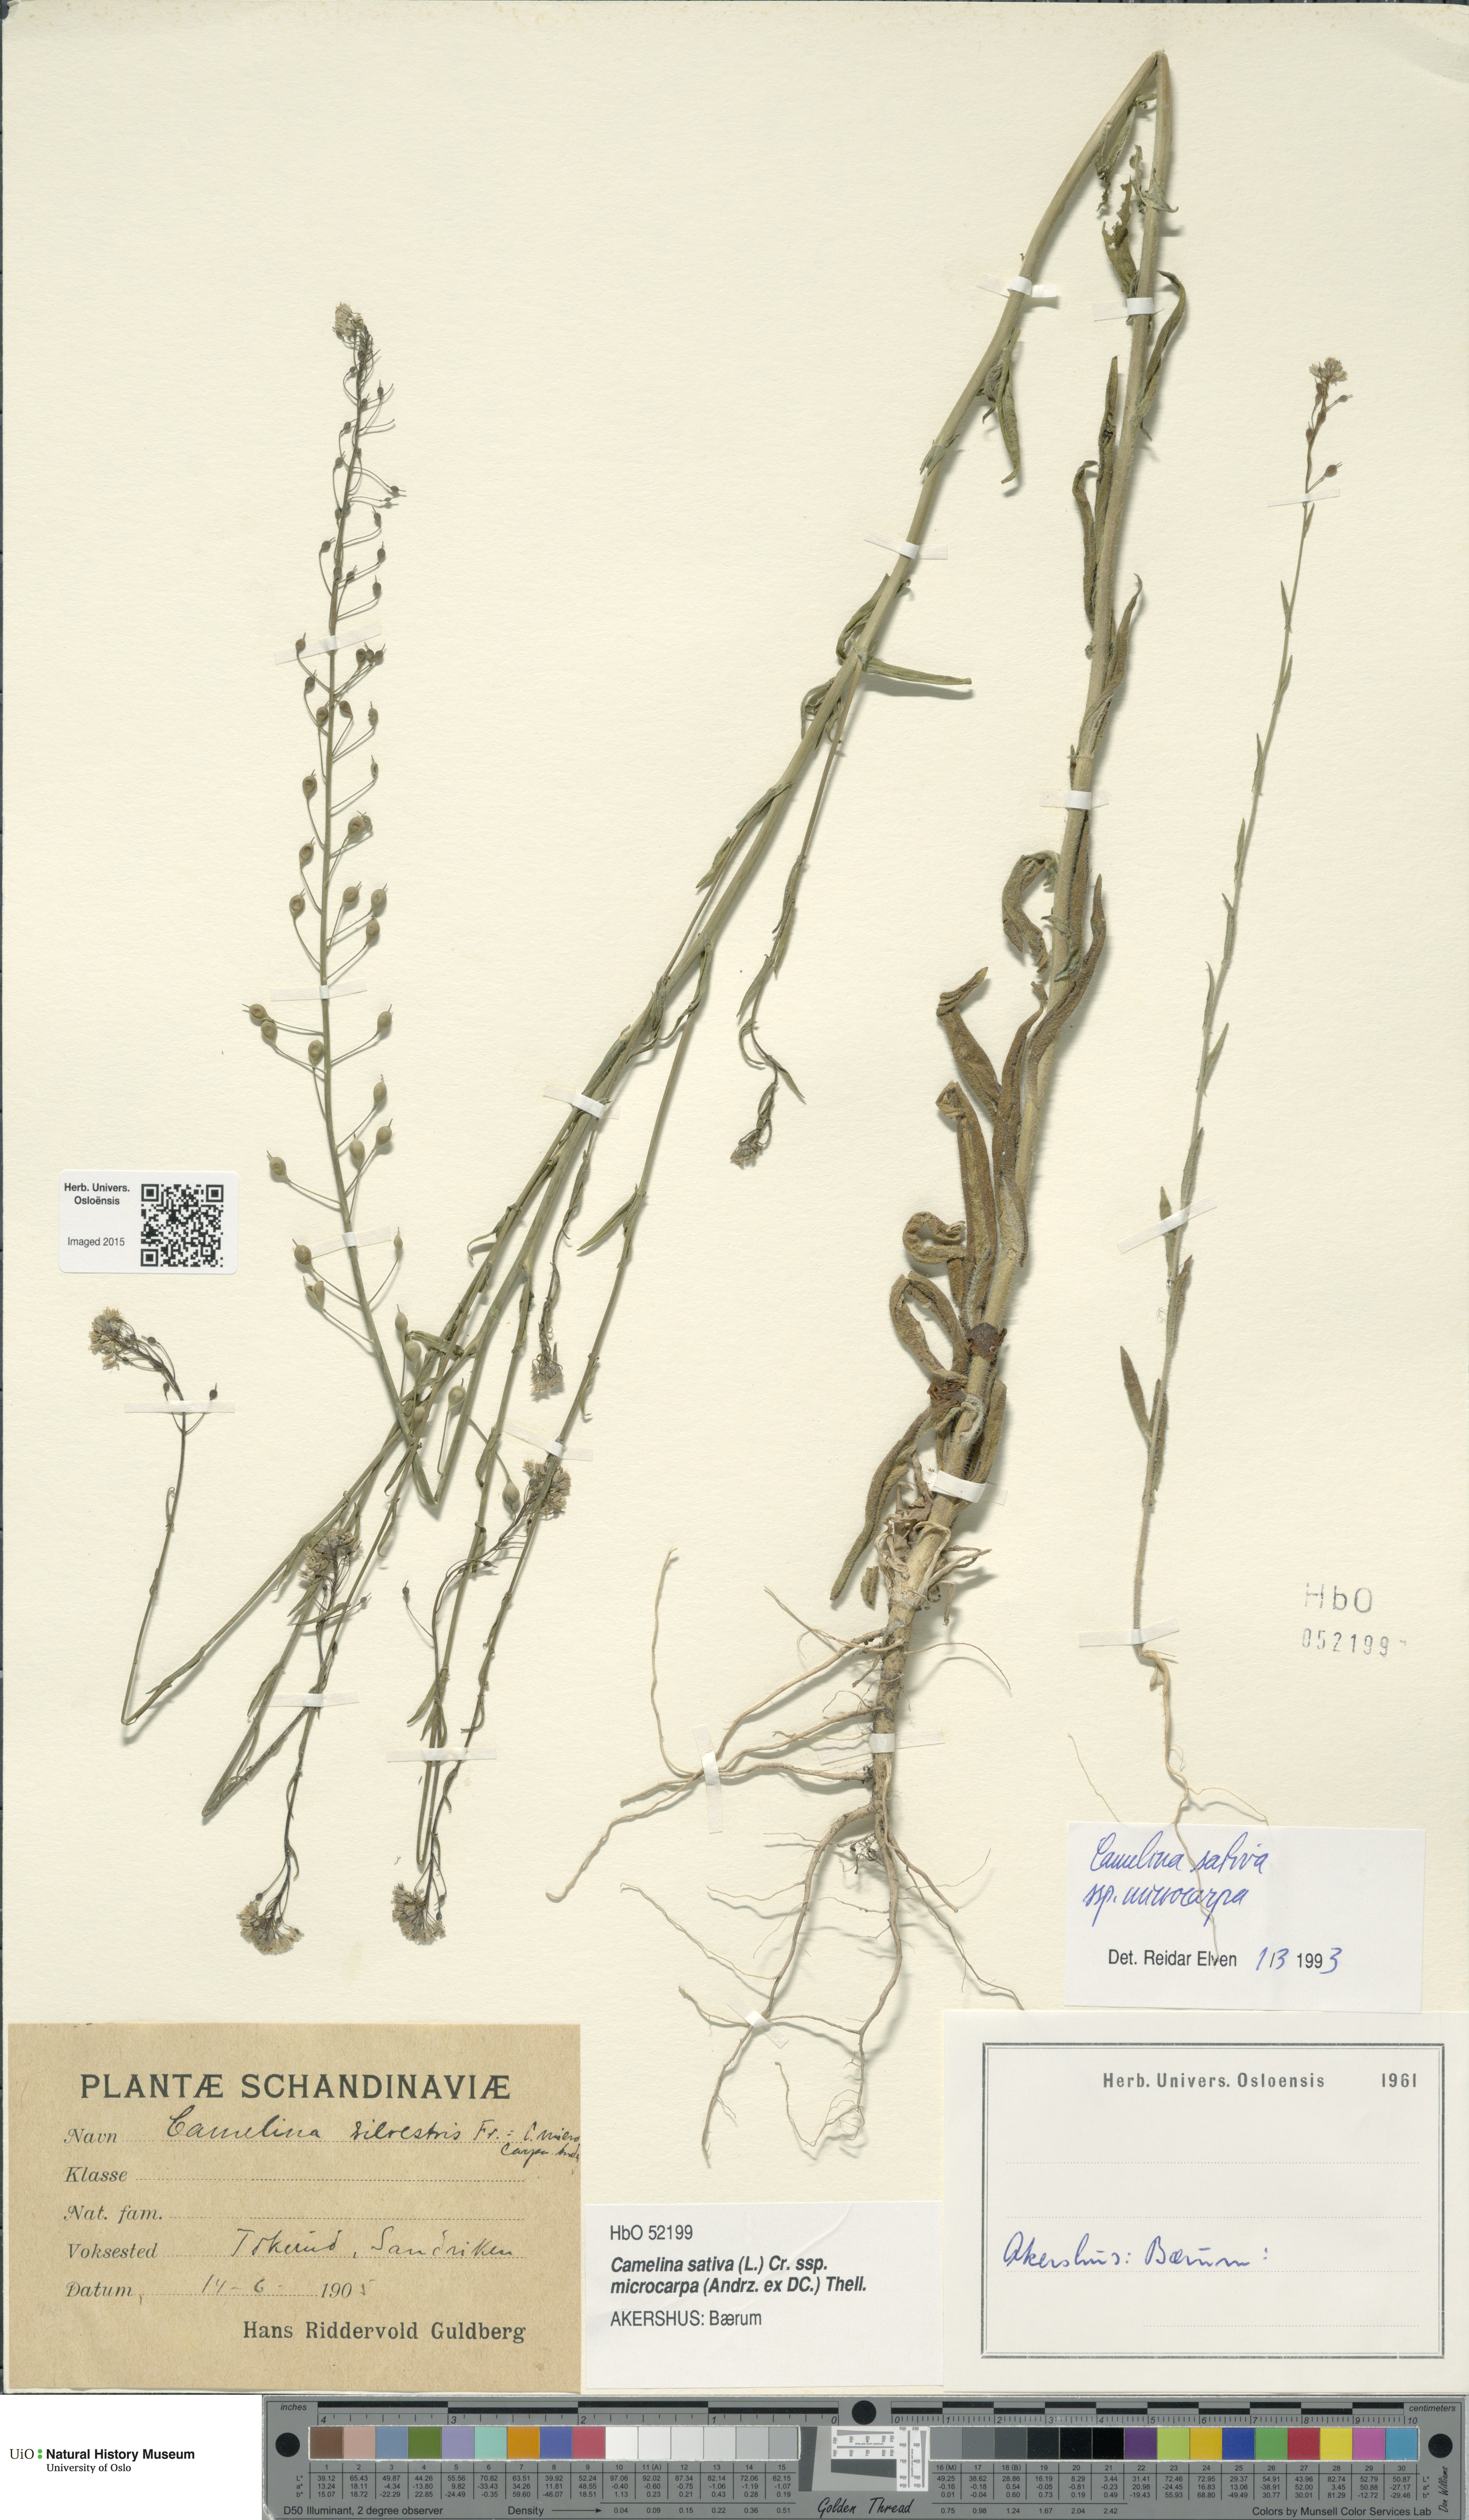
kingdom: Plantae
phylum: Tracheophyta
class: Magnoliopsida
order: Brassicales
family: Brassicaceae
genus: Camelina
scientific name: Camelina sativa
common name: Gold-of-pleasure
